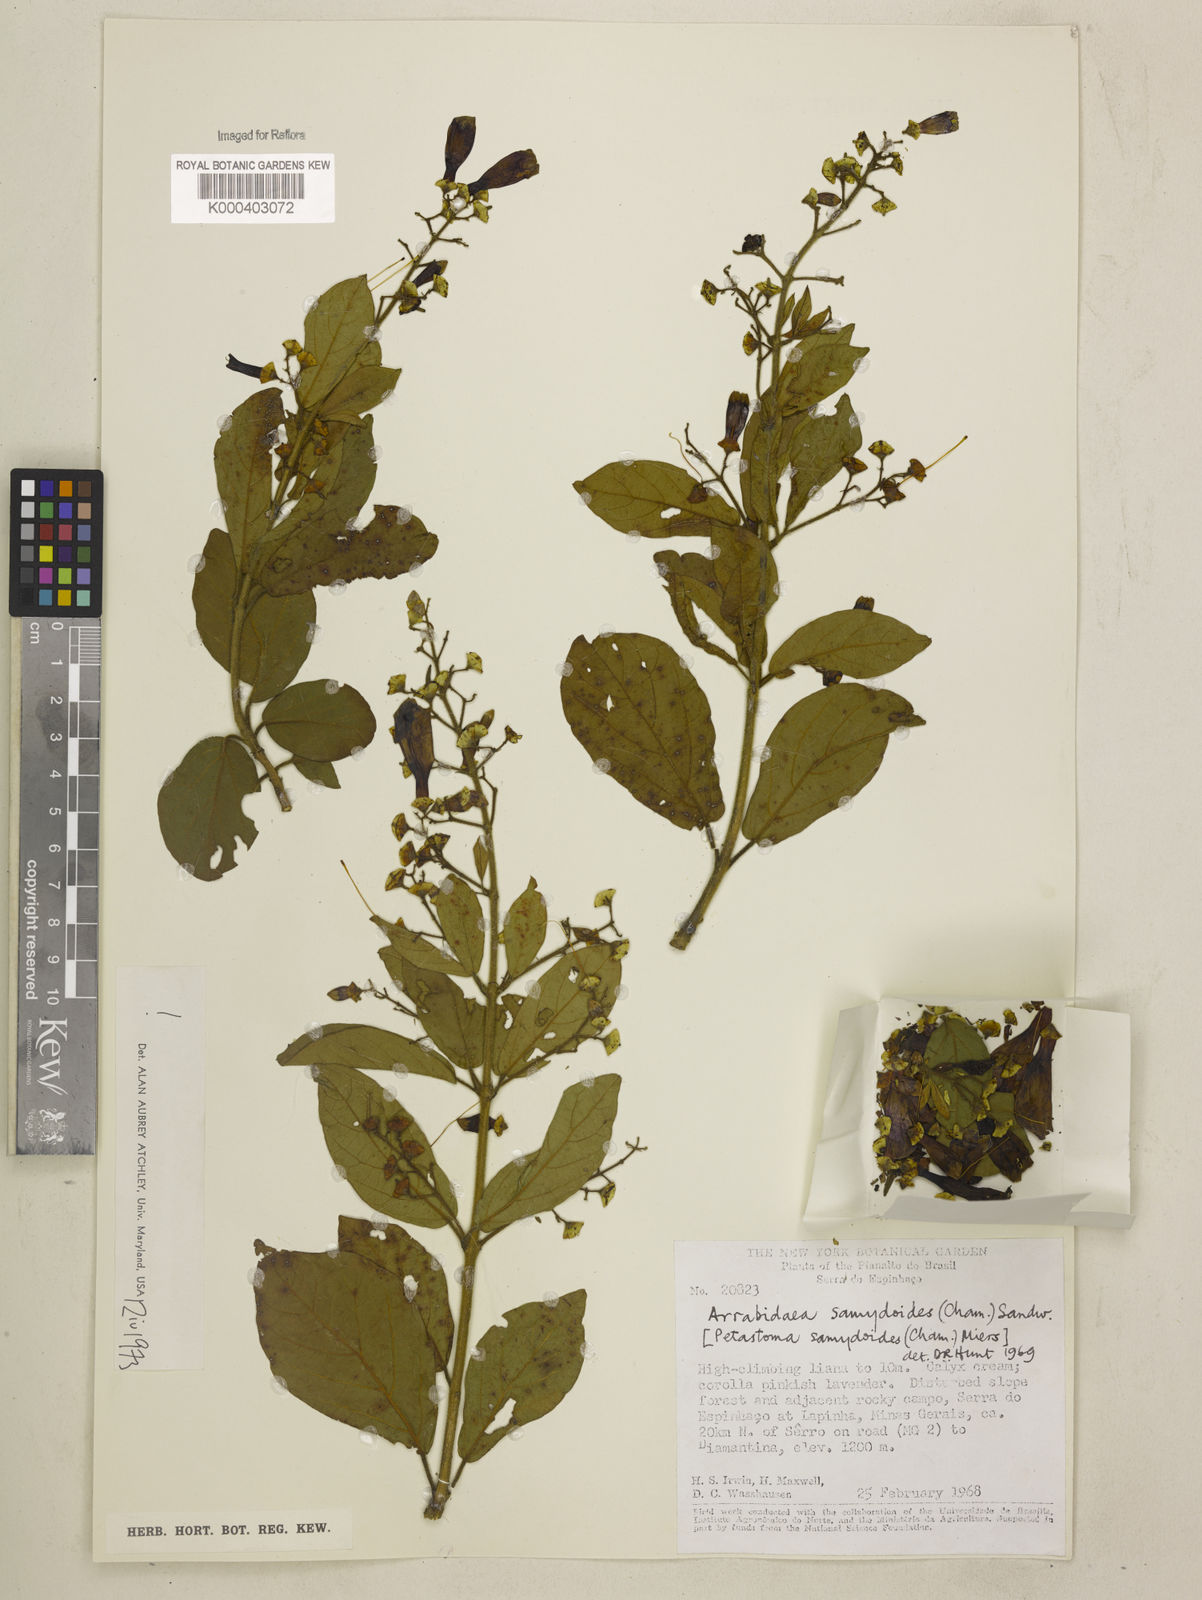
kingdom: Plantae
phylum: Tracheophyta
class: Magnoliopsida
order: Lamiales
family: Bignoniaceae
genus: Fridericia
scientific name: Fridericia samydoides
